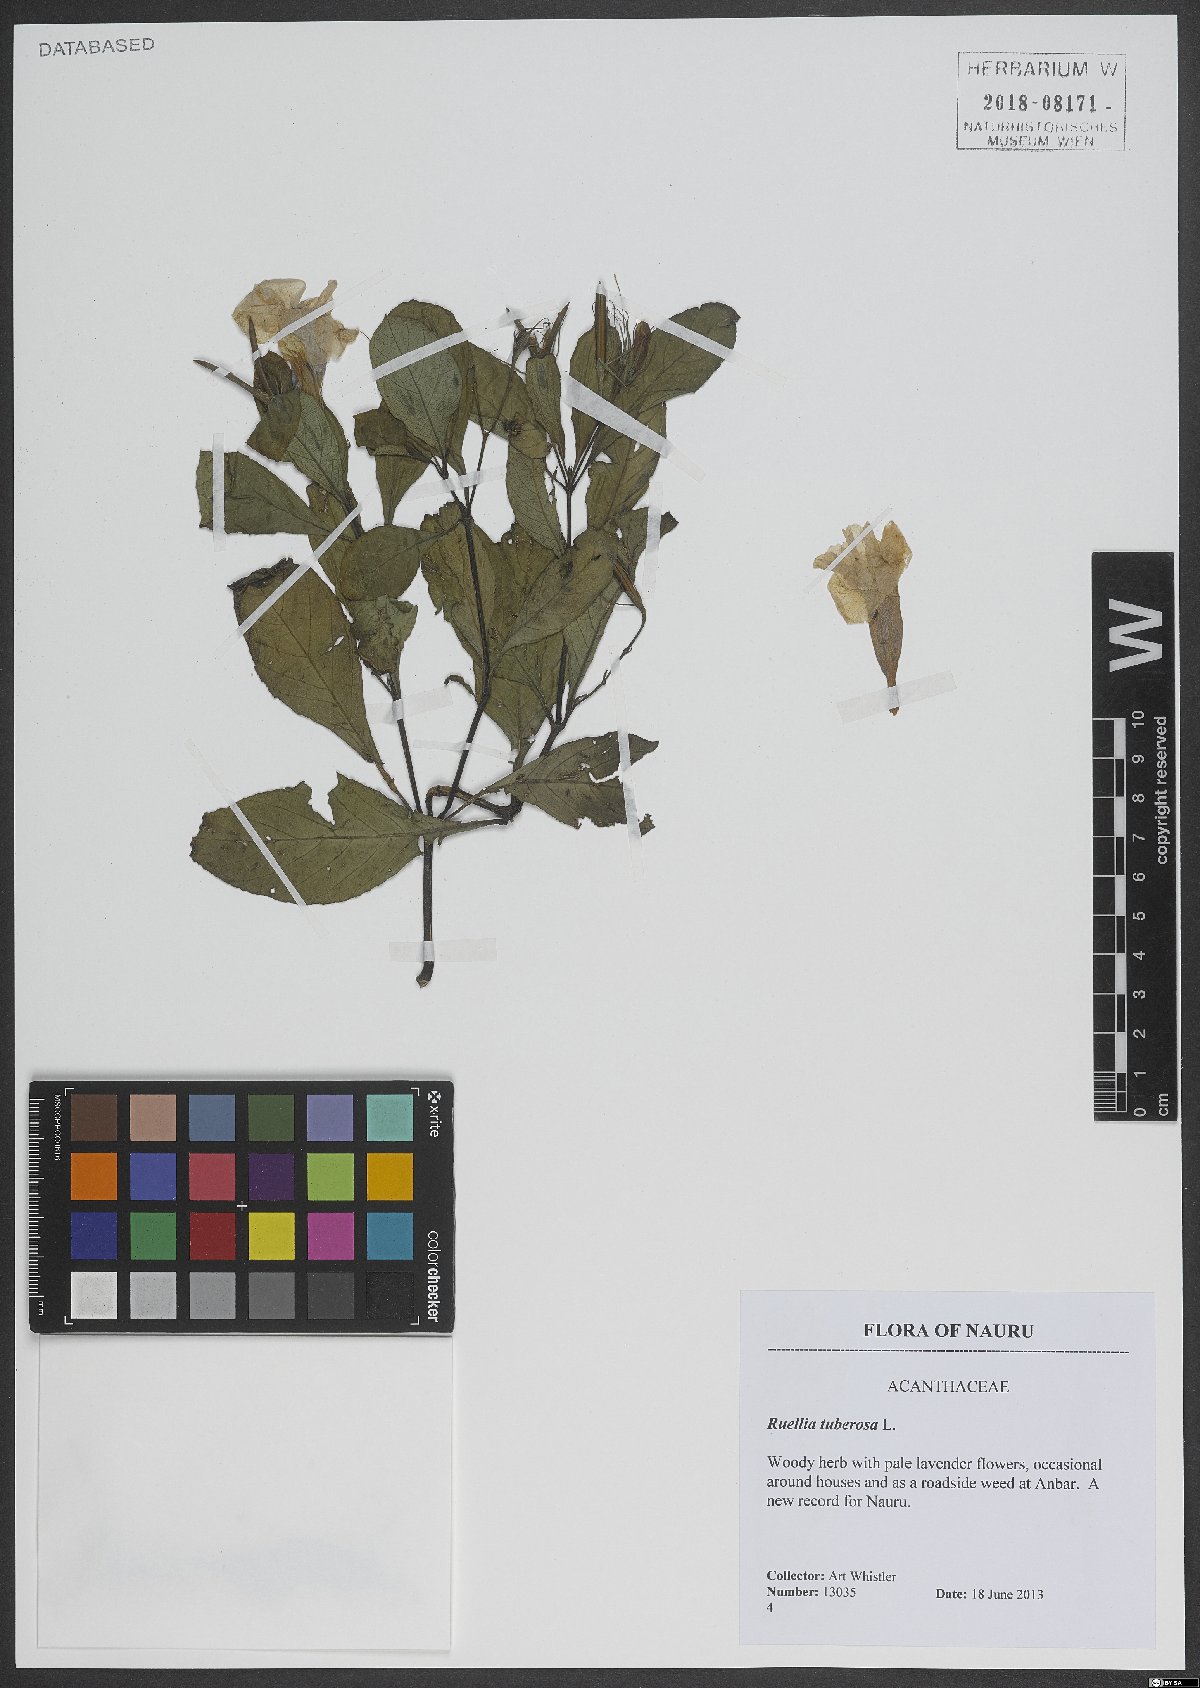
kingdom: Plantae
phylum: Tracheophyta
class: Magnoliopsida
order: Lamiales
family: Acanthaceae
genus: Ruellia
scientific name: Ruellia tuberosa
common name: Devil's bit
